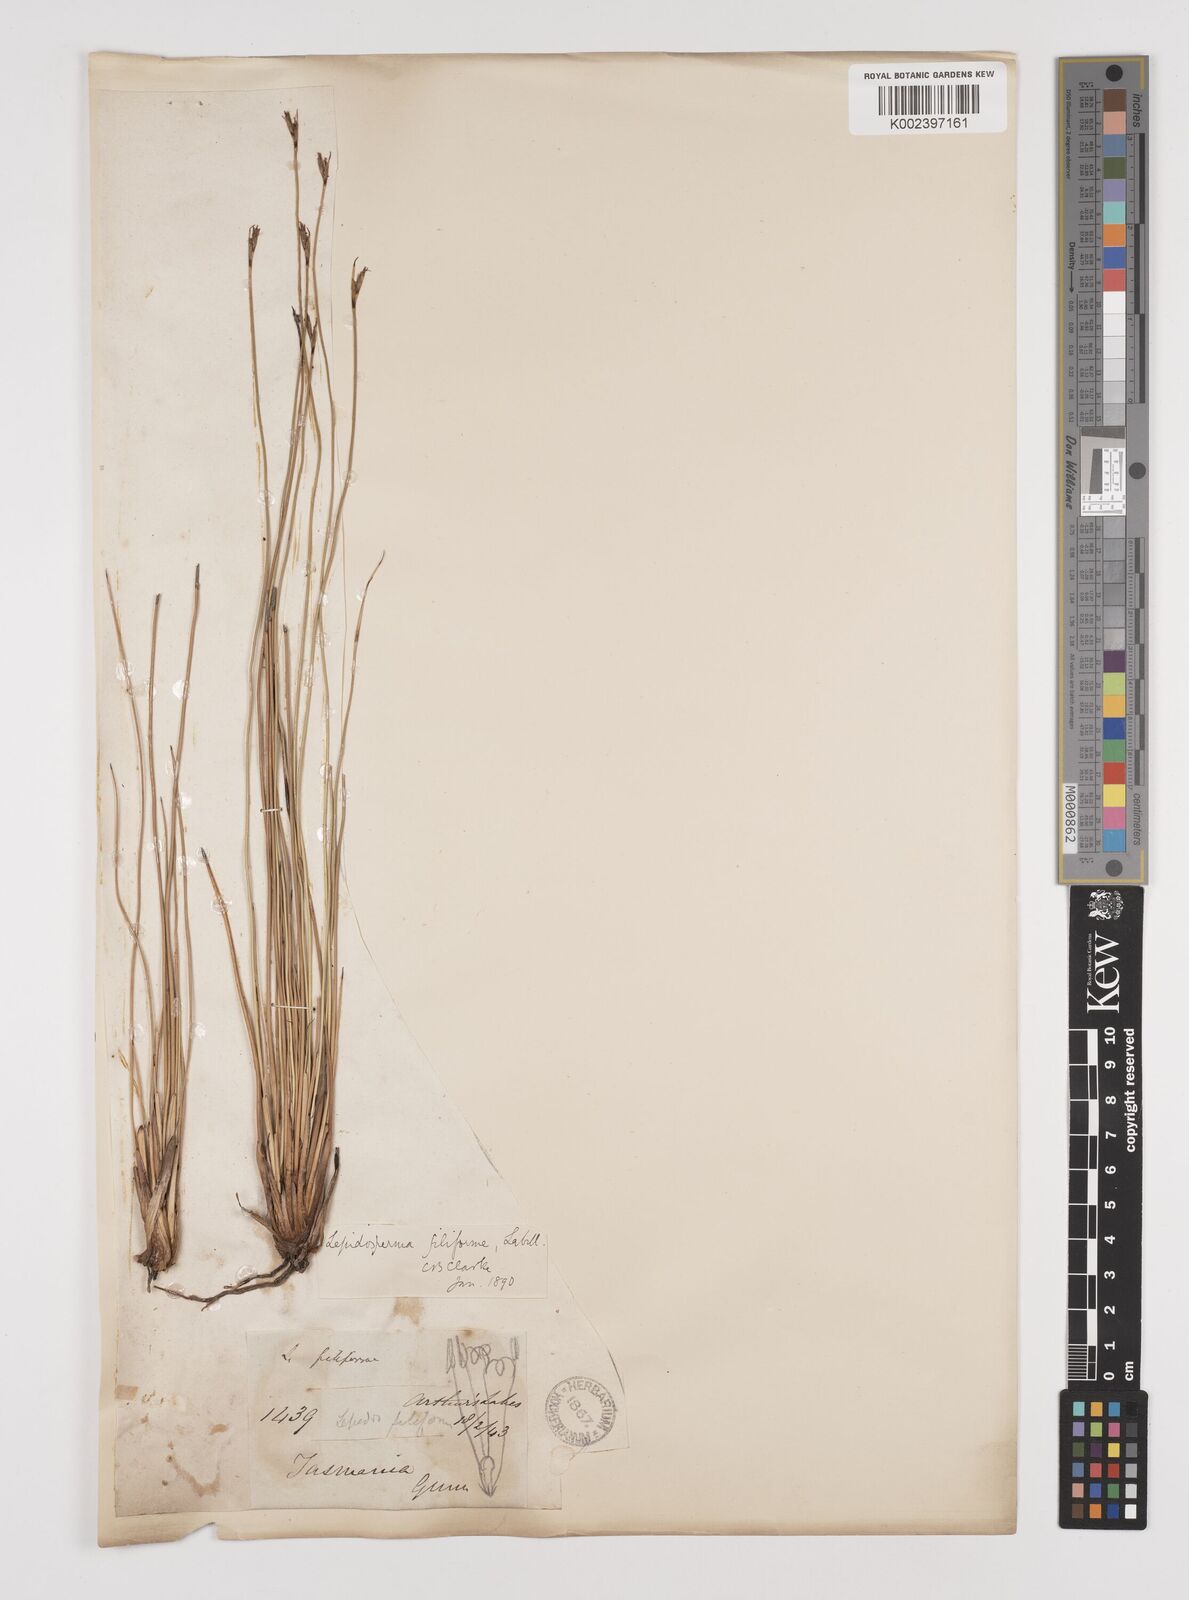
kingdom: Plantae
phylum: Tracheophyta
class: Liliopsida
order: Poales
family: Cyperaceae
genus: Lepidosperma
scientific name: Lepidosperma filiforme
